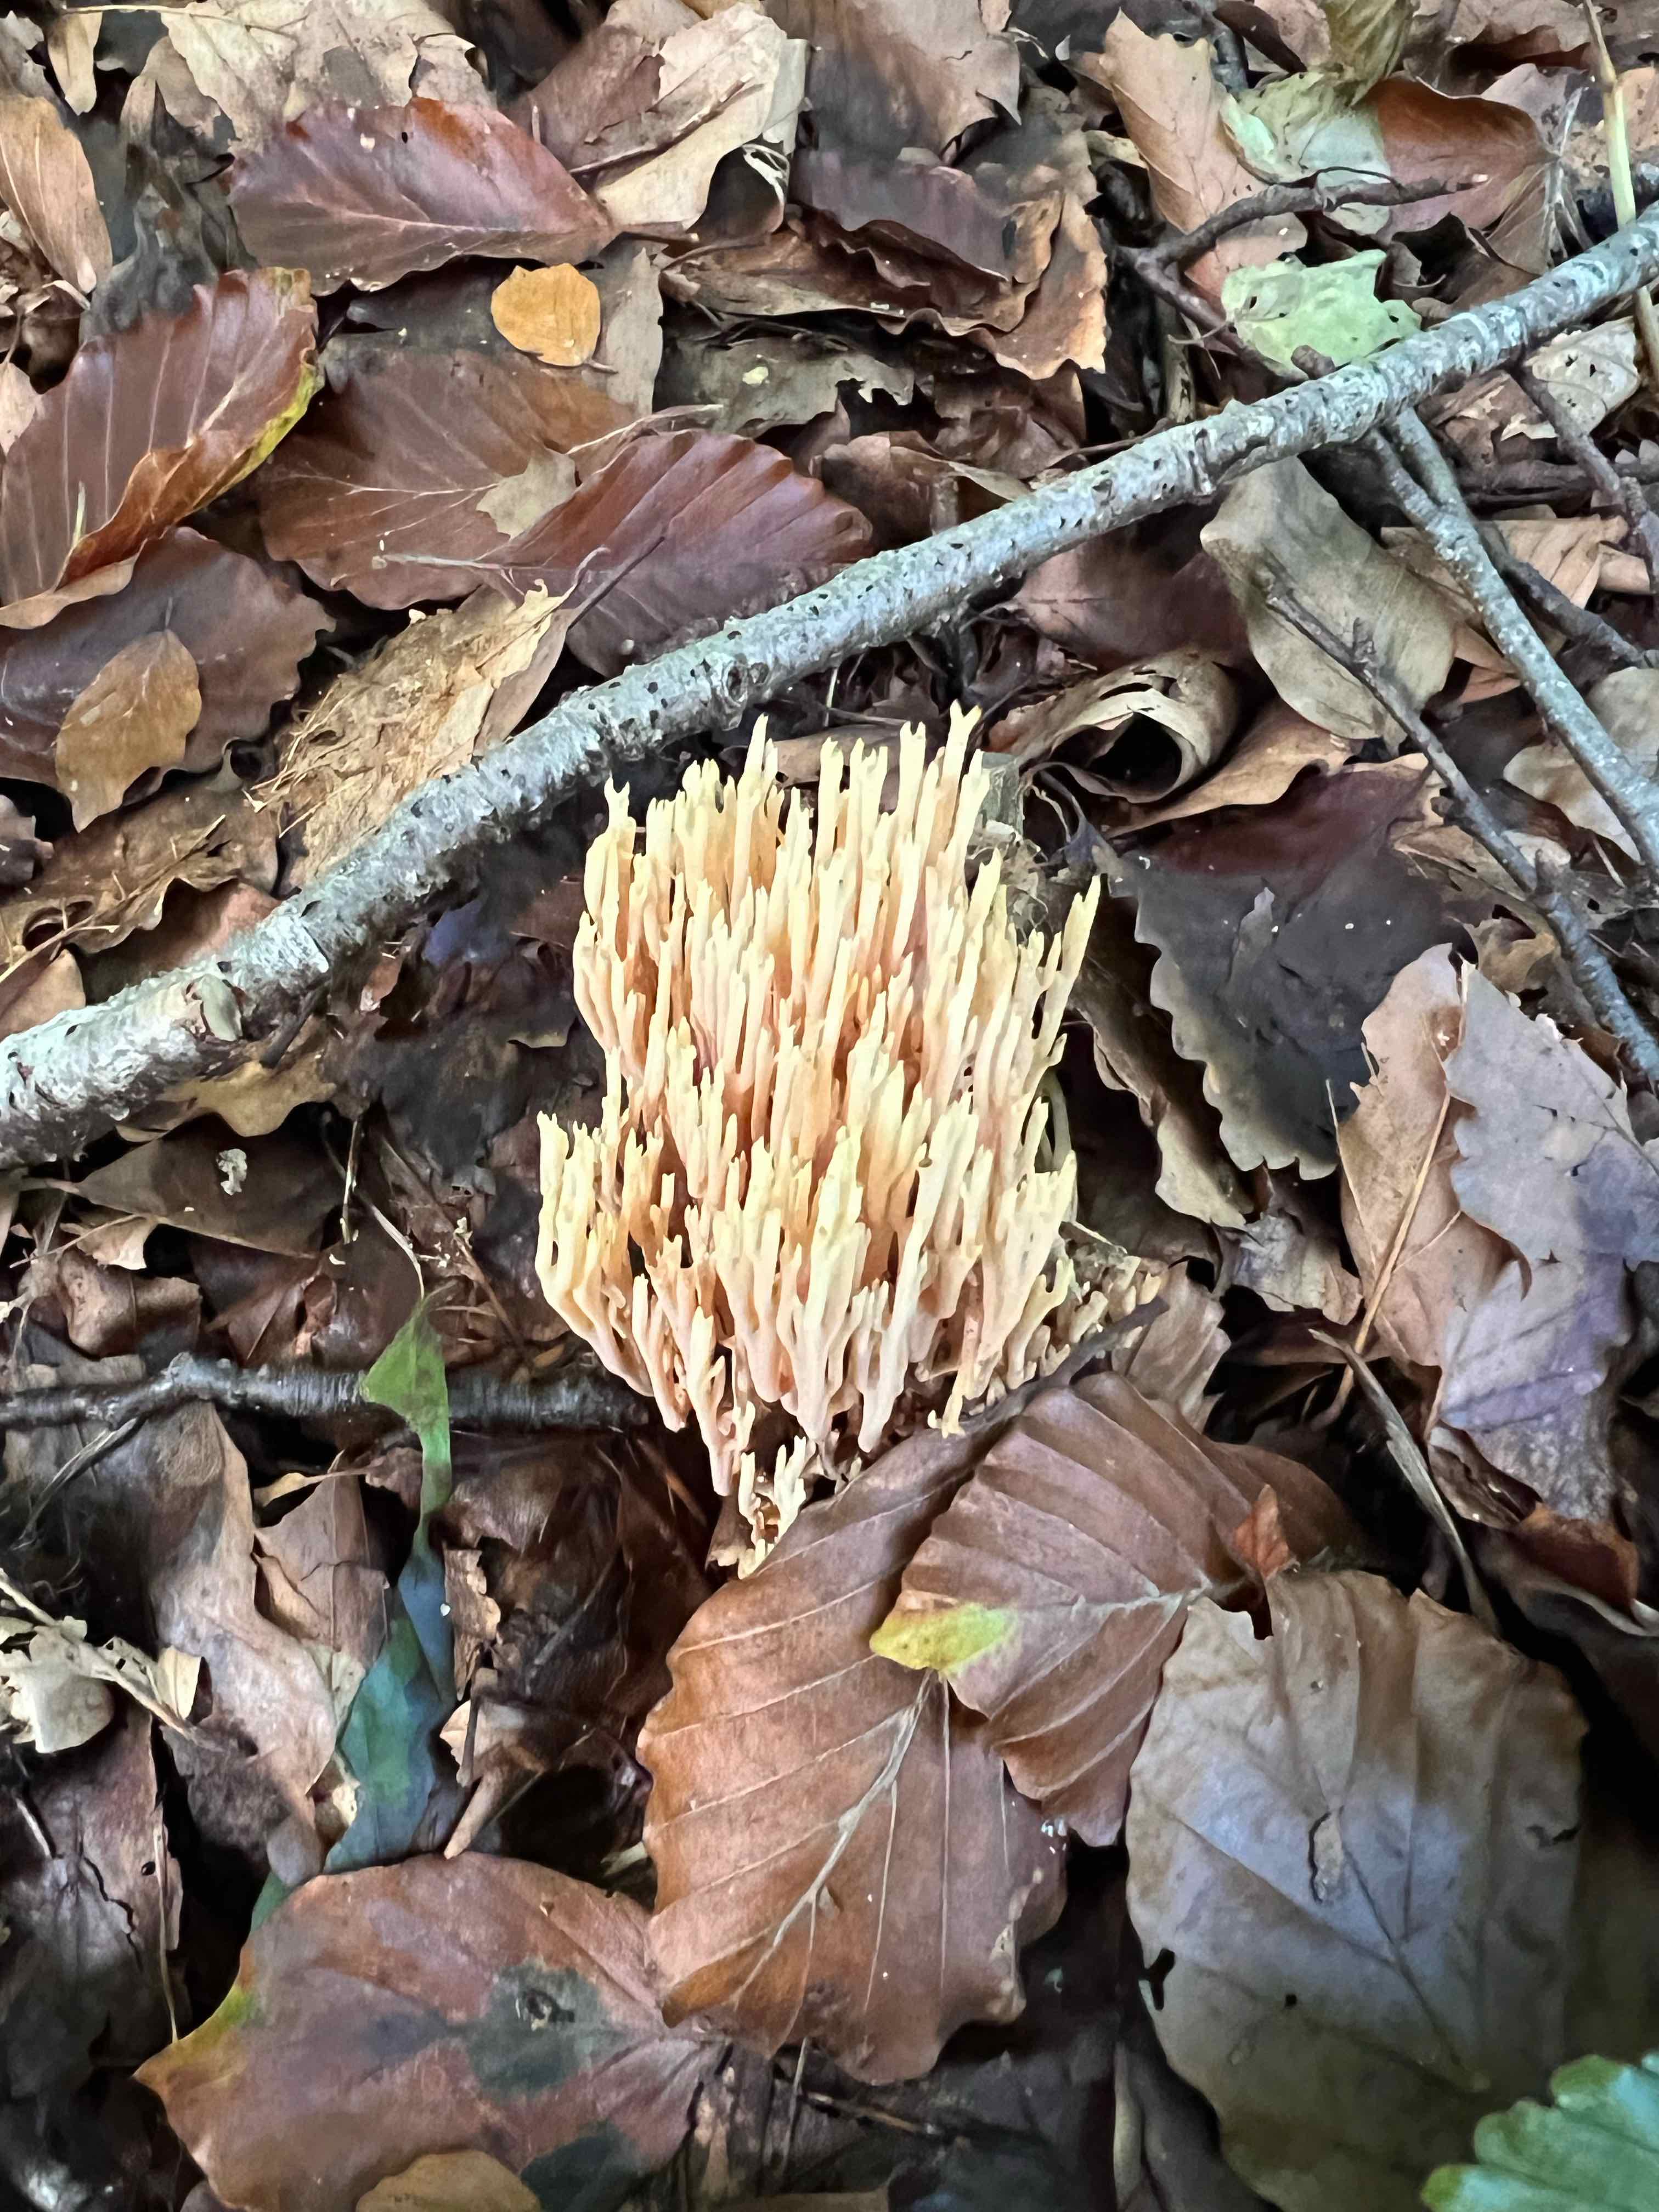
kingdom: Fungi
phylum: Basidiomycota
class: Agaricomycetes
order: Gomphales
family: Gomphaceae
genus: Ramaria
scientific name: Ramaria stricta
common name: rank koralsvamp
